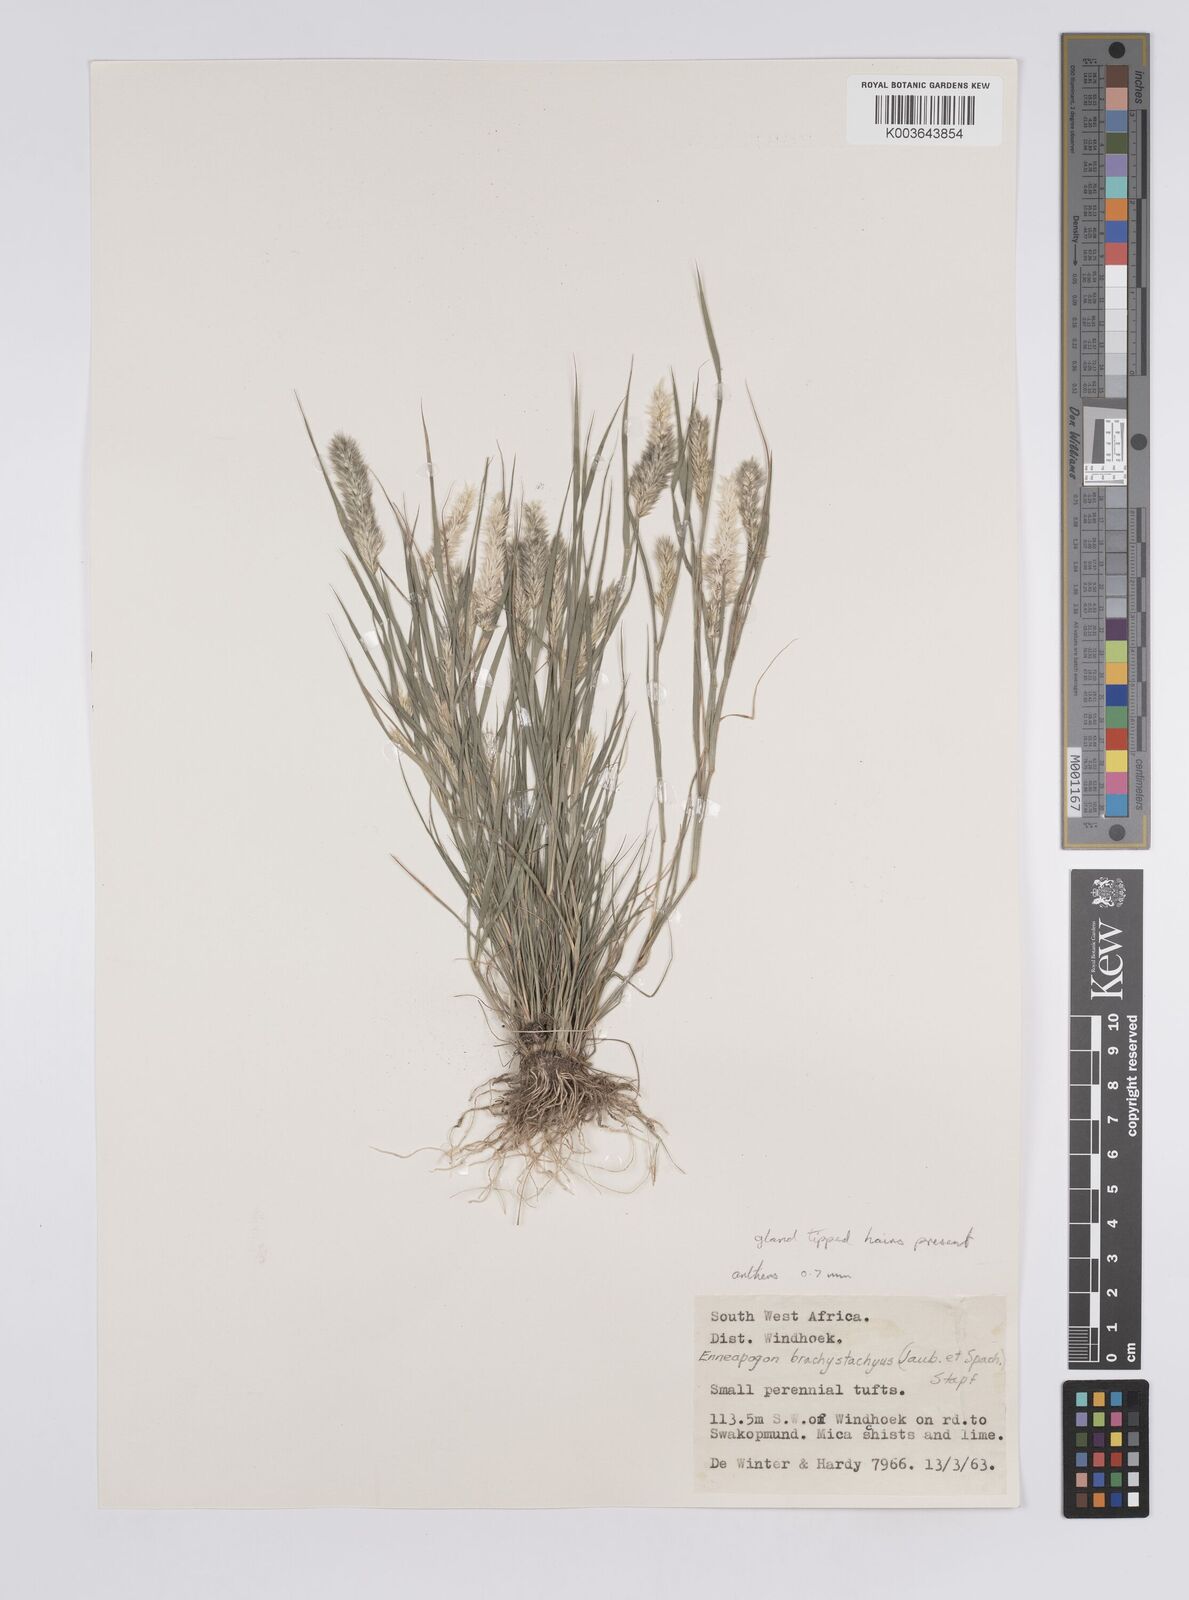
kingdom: Plantae
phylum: Tracheophyta
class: Liliopsida
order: Poales
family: Poaceae
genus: Enneapogon
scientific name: Enneapogon desvauxii
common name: Feather pappus grass
